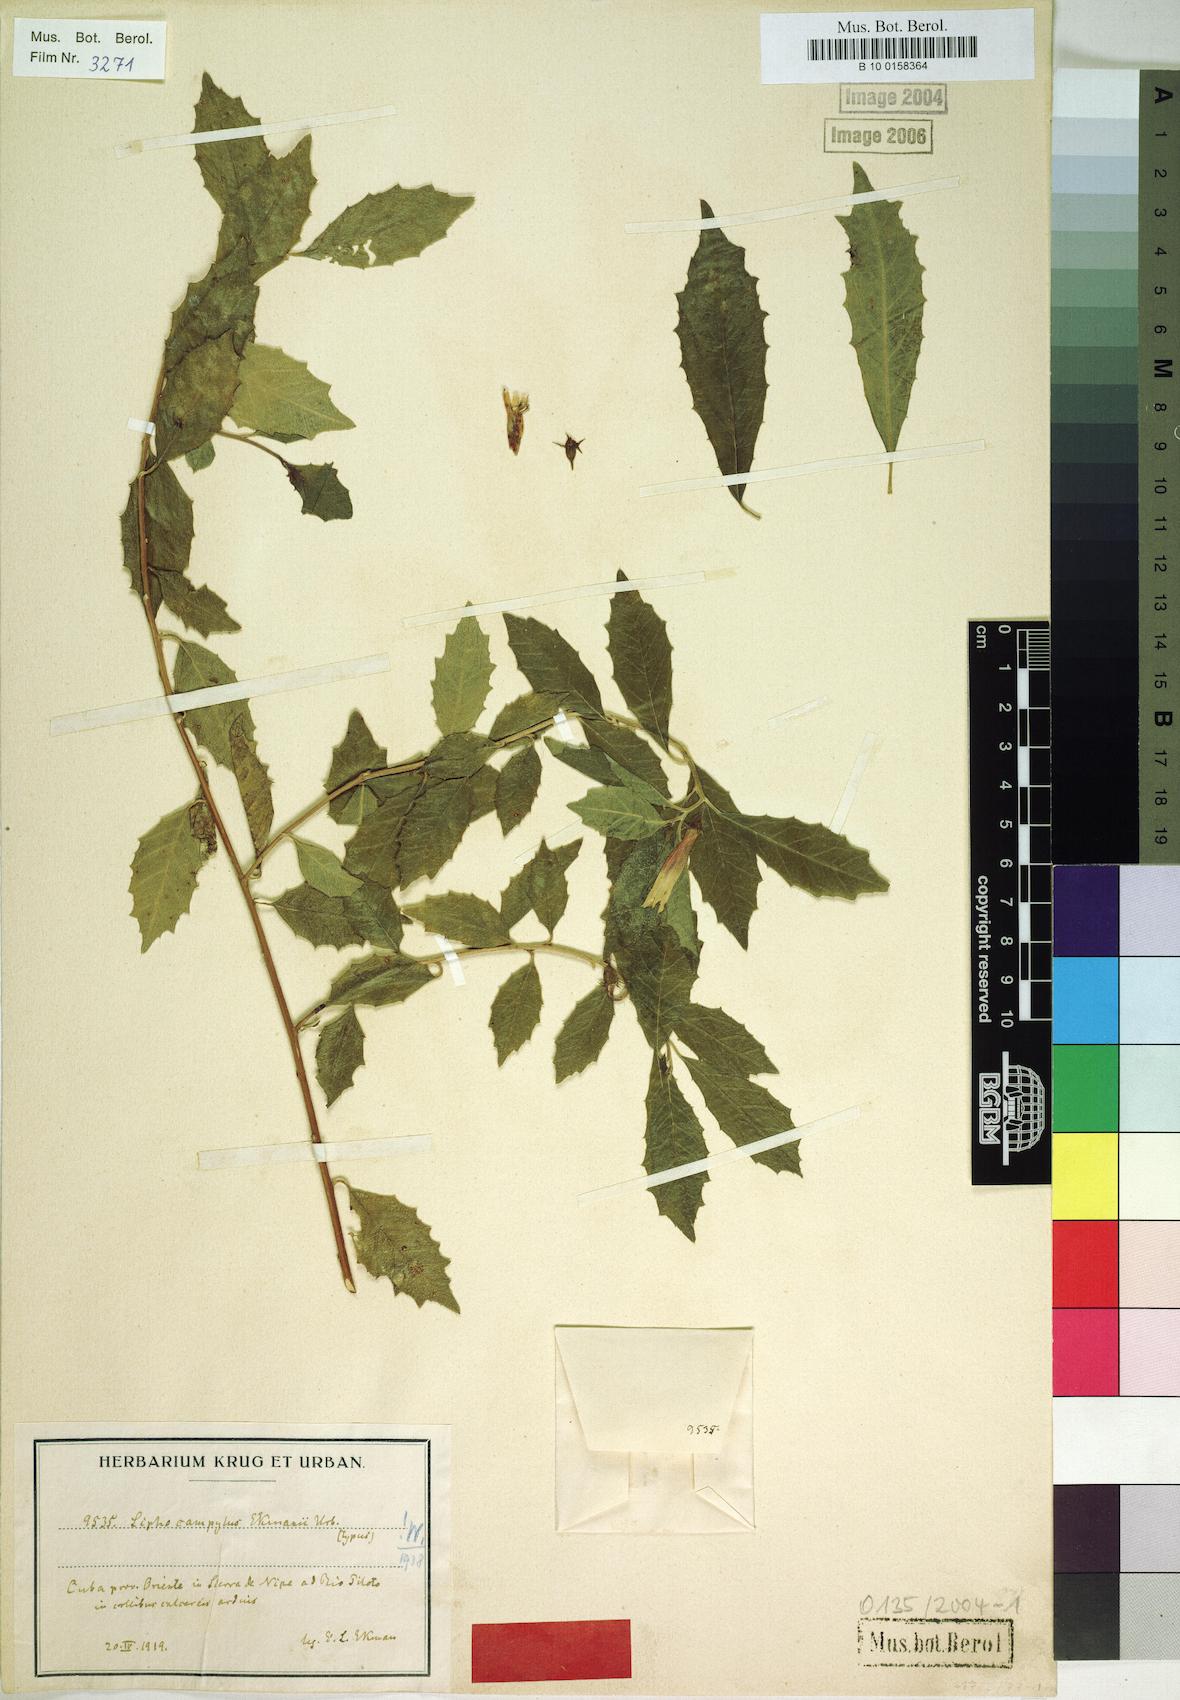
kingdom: Plantae
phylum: Tracheophyta
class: Magnoliopsida
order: Asterales
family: Campanulaceae
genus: Siphocampylus
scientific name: Siphocampylus manettiiflorus
